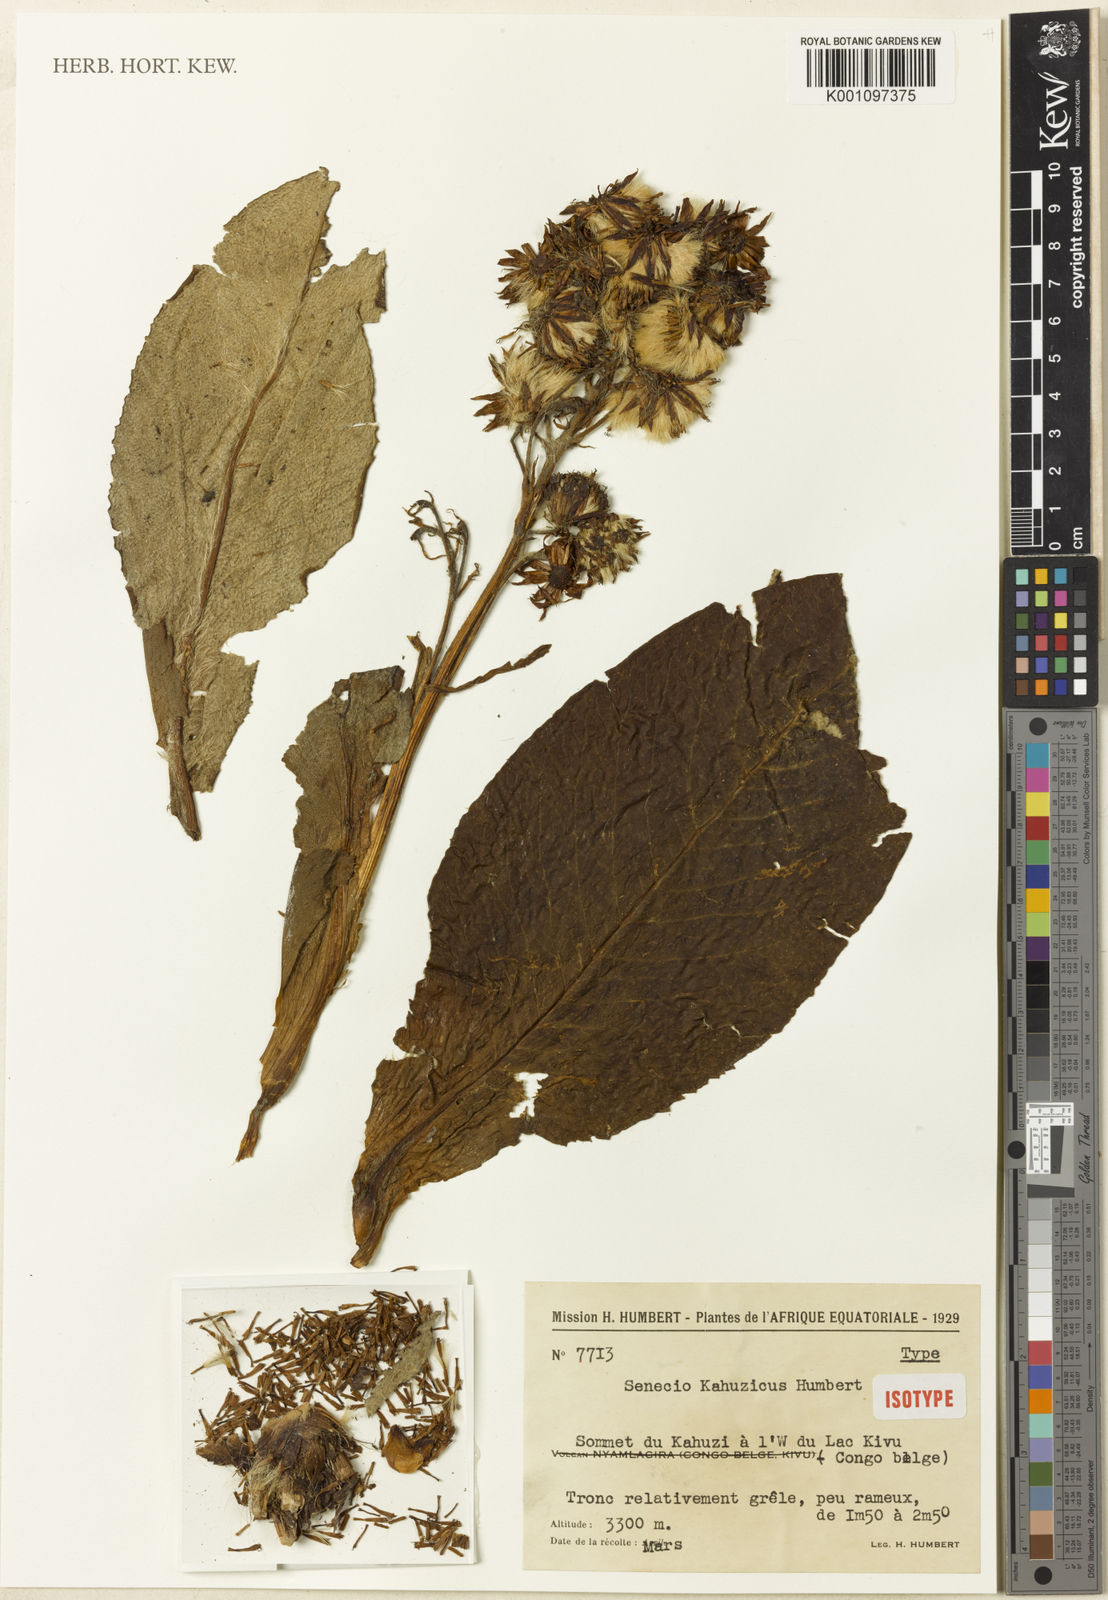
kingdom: Plantae
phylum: Tracheophyta
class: Magnoliopsida
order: Asterales
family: Asteraceae
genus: Dendrosenecio
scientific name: Dendrosenecio erici-rosenii
